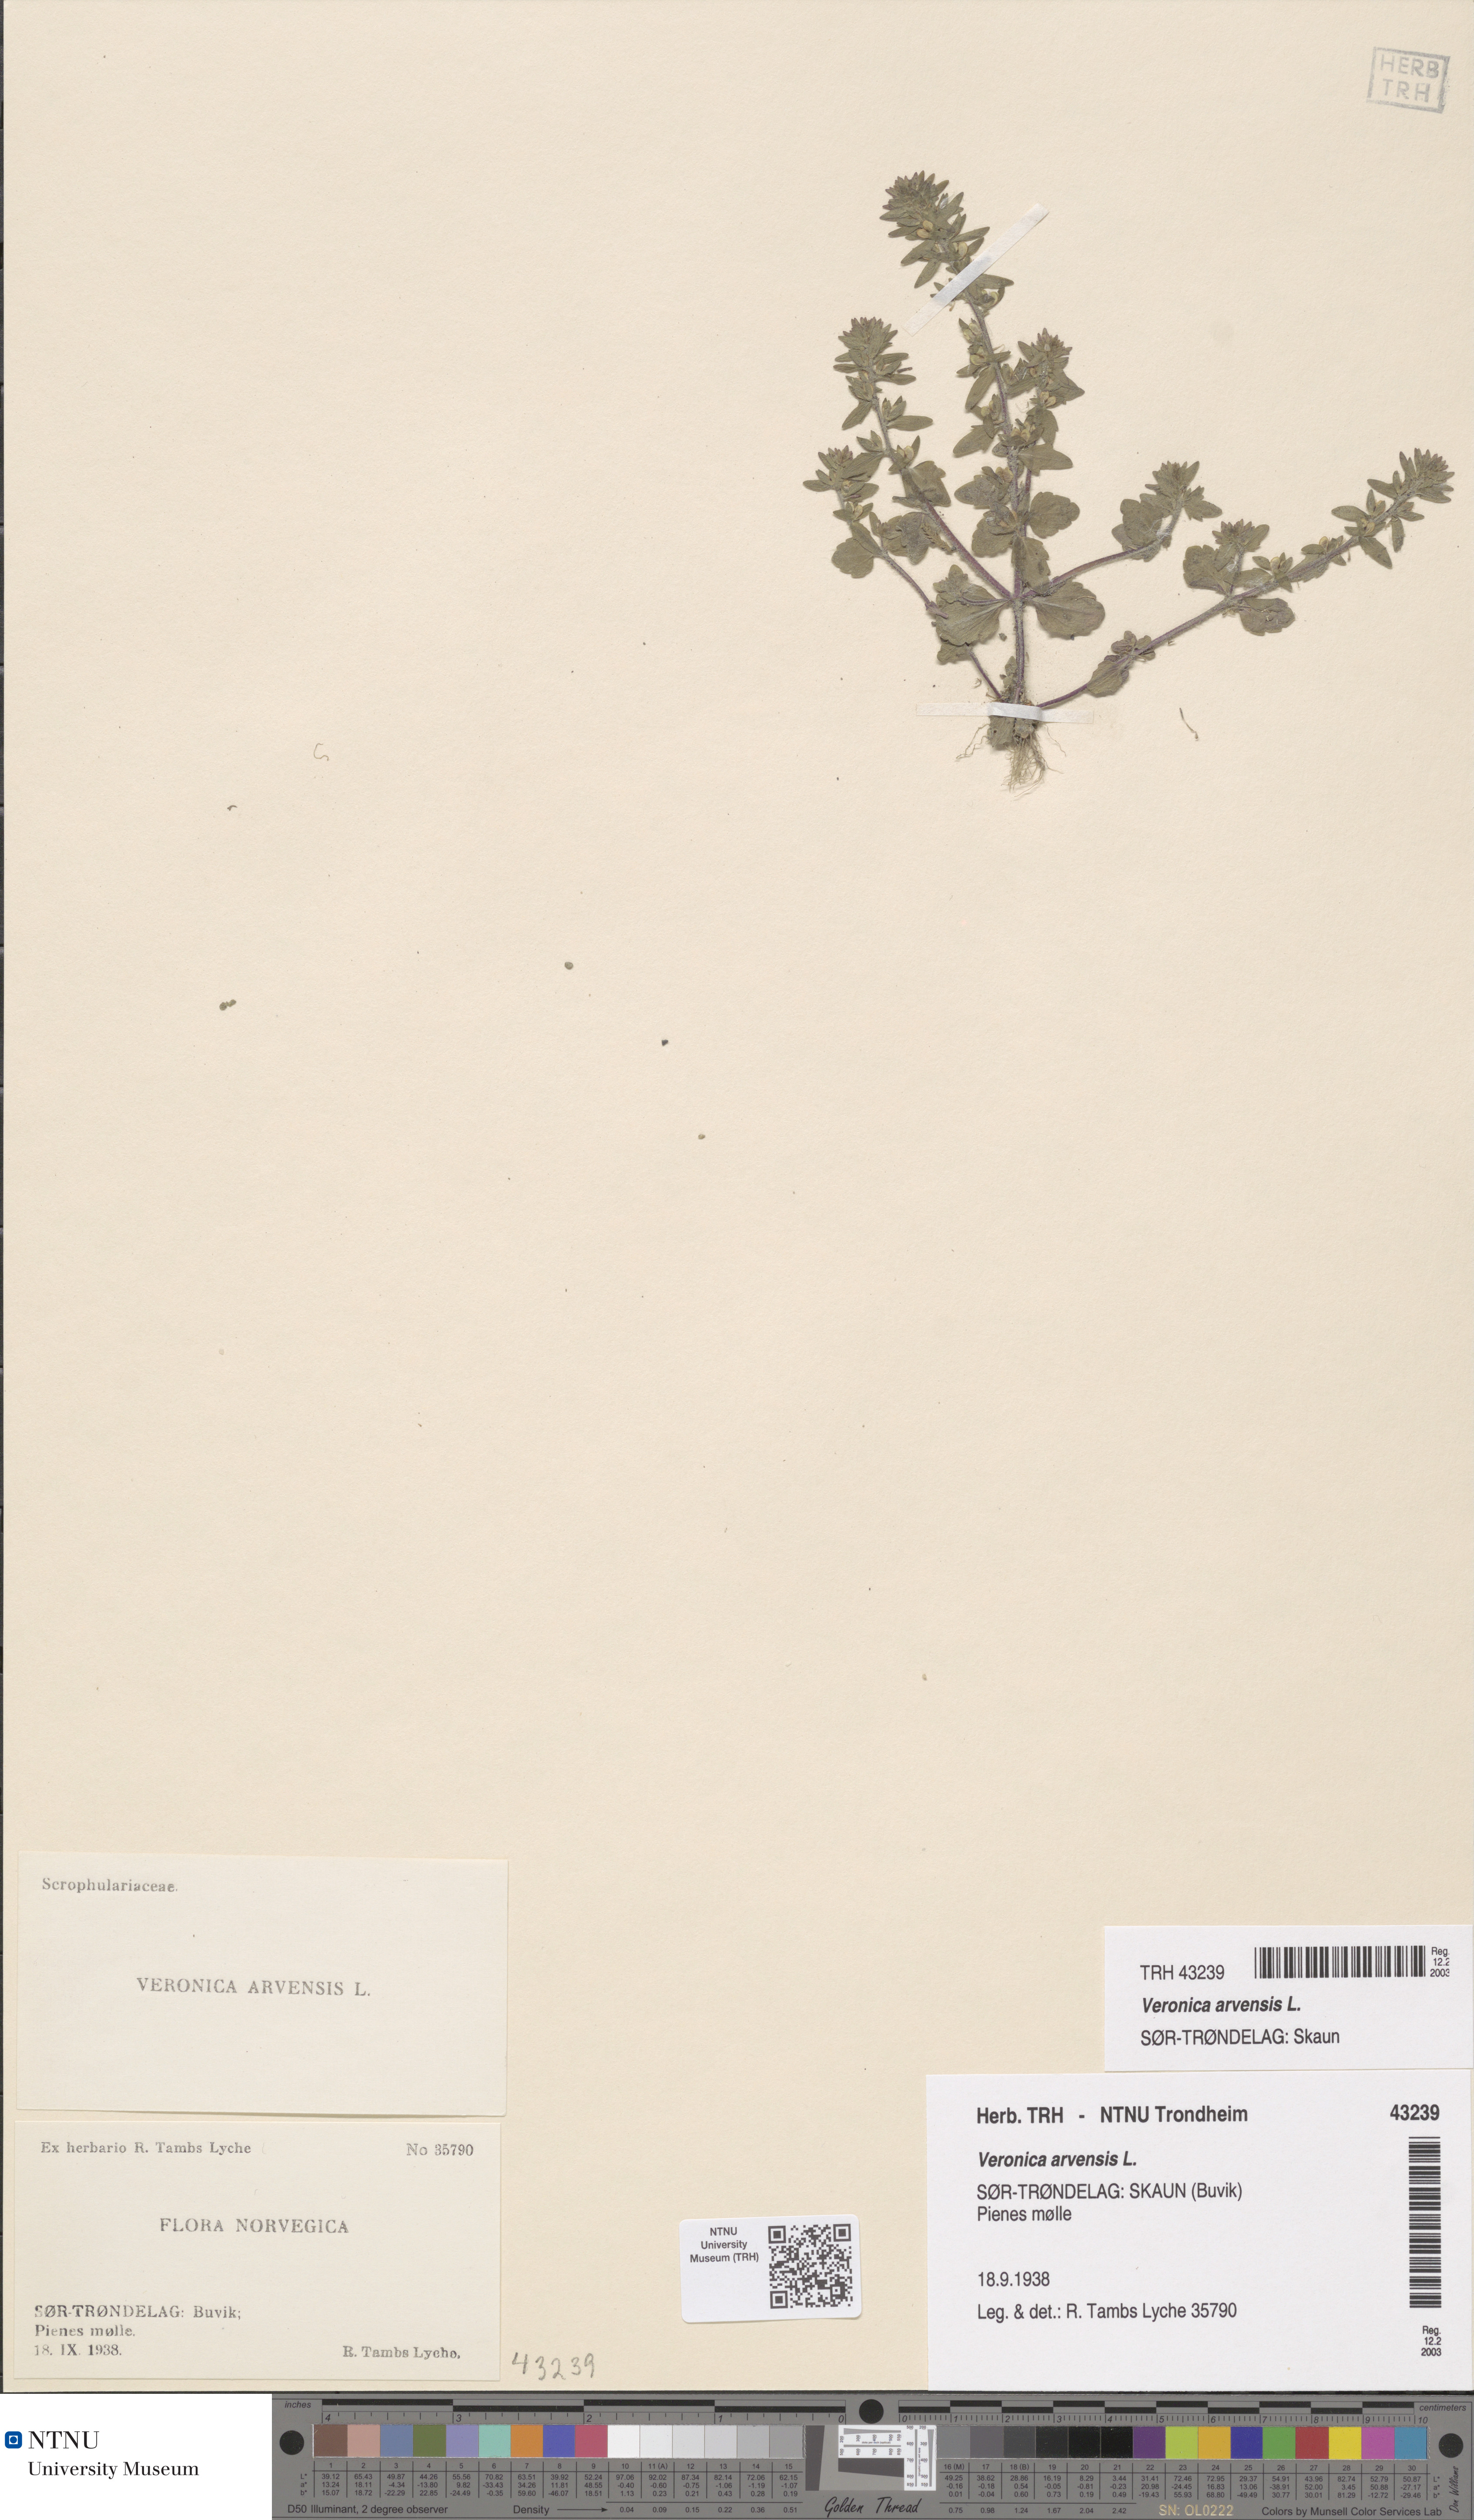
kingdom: Plantae
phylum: Tracheophyta
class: Magnoliopsida
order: Lamiales
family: Plantaginaceae
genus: Veronica
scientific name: Veronica arvensis
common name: Corn speedwell
